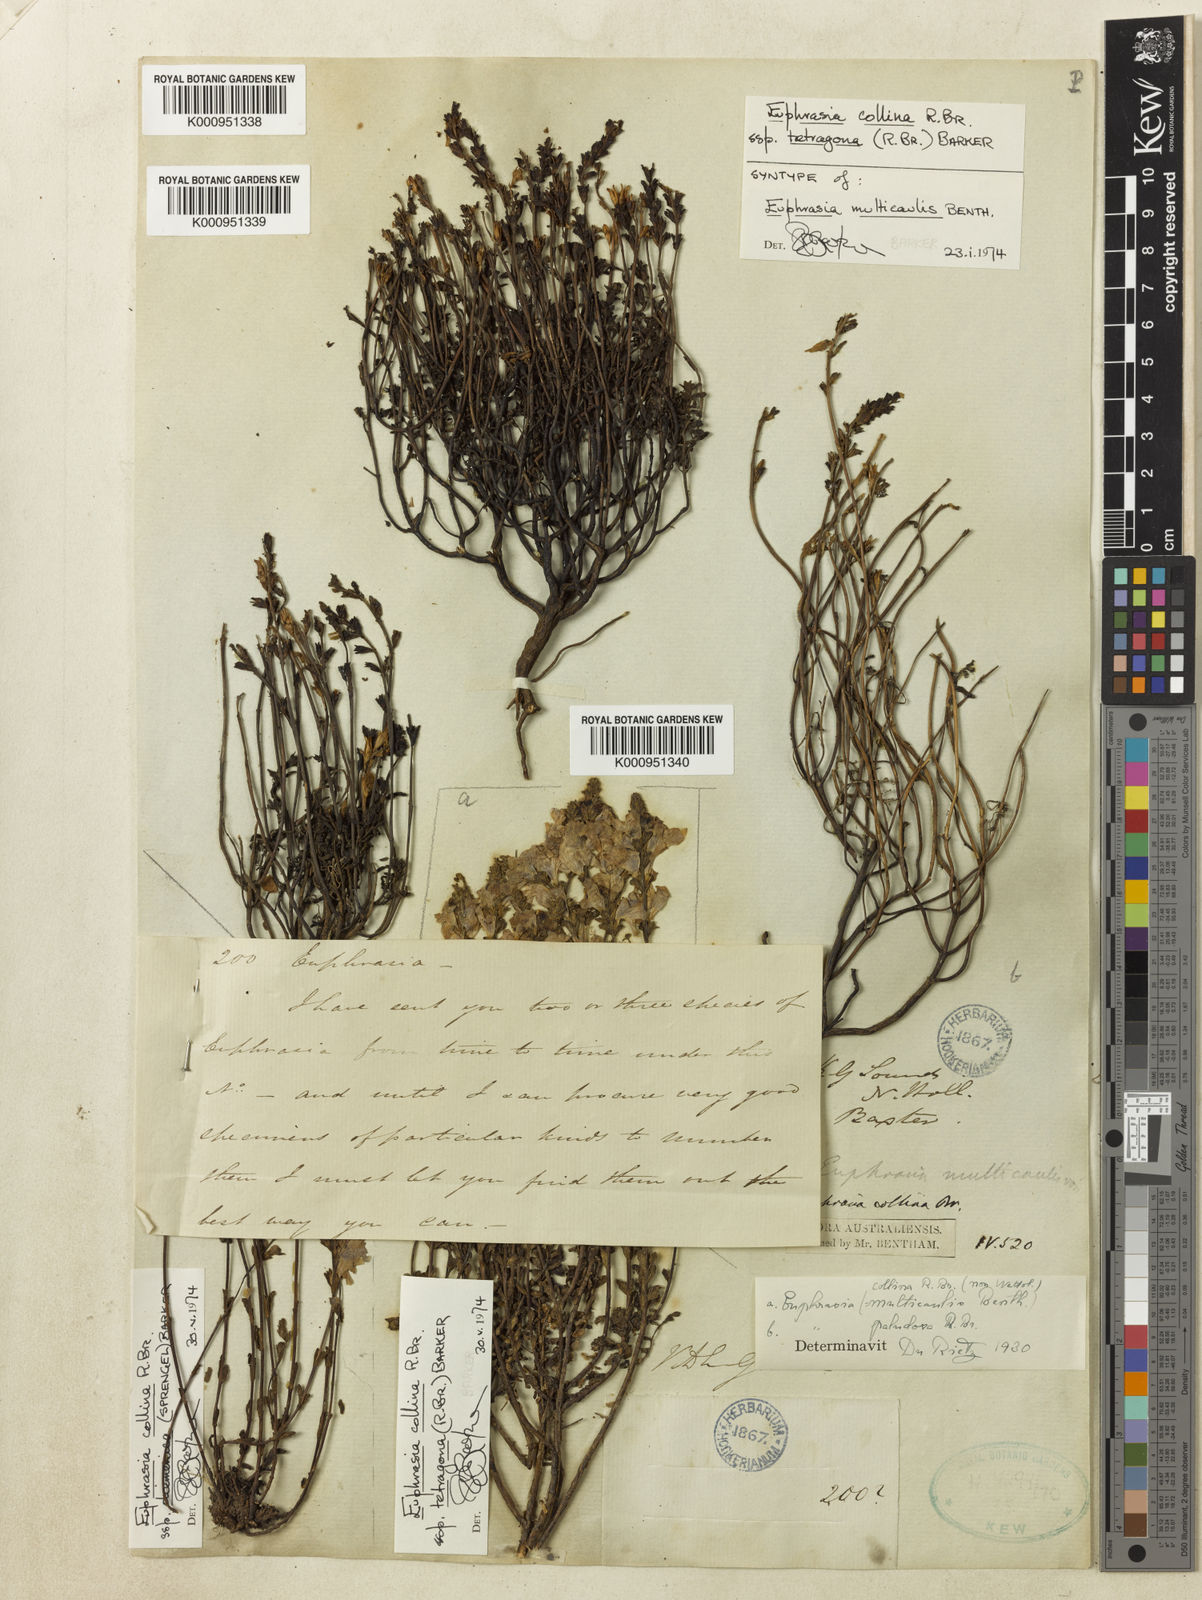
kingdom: Plantae
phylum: Tracheophyta
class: Magnoliopsida
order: Lamiales
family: Orobanchaceae
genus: Euphrasia
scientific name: Euphrasia collina
